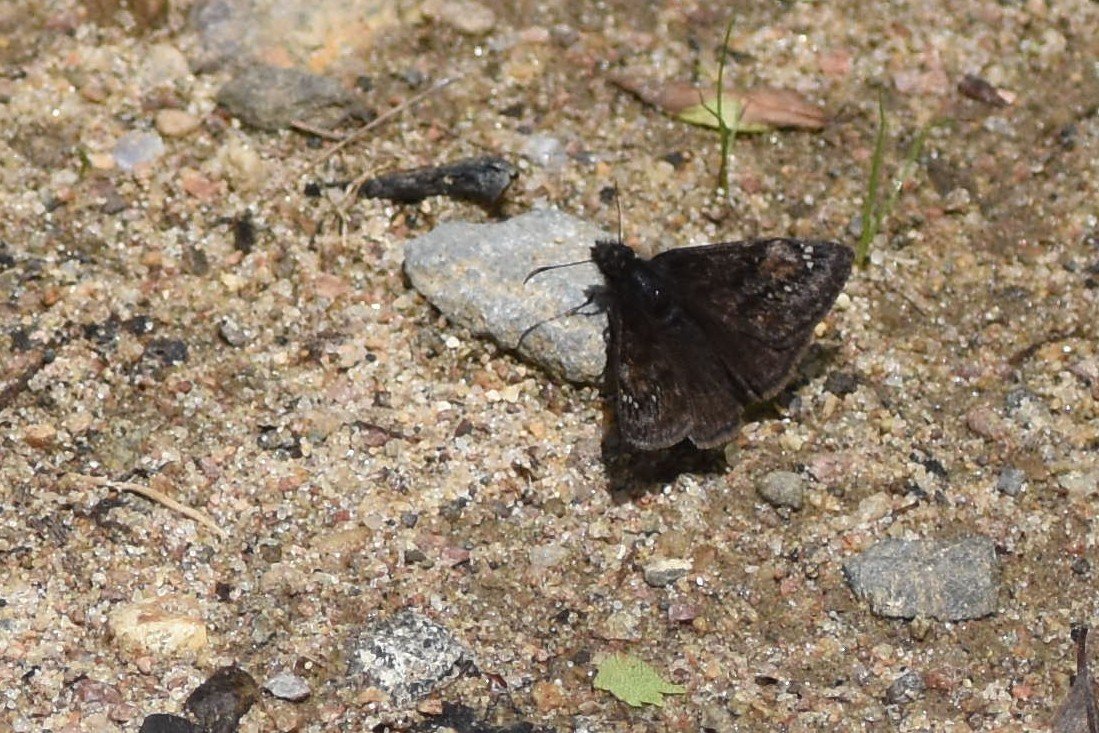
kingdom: Animalia
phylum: Arthropoda
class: Insecta
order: Lepidoptera
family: Hesperiidae
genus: Gesta
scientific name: Gesta
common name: Columbine Duskywing
